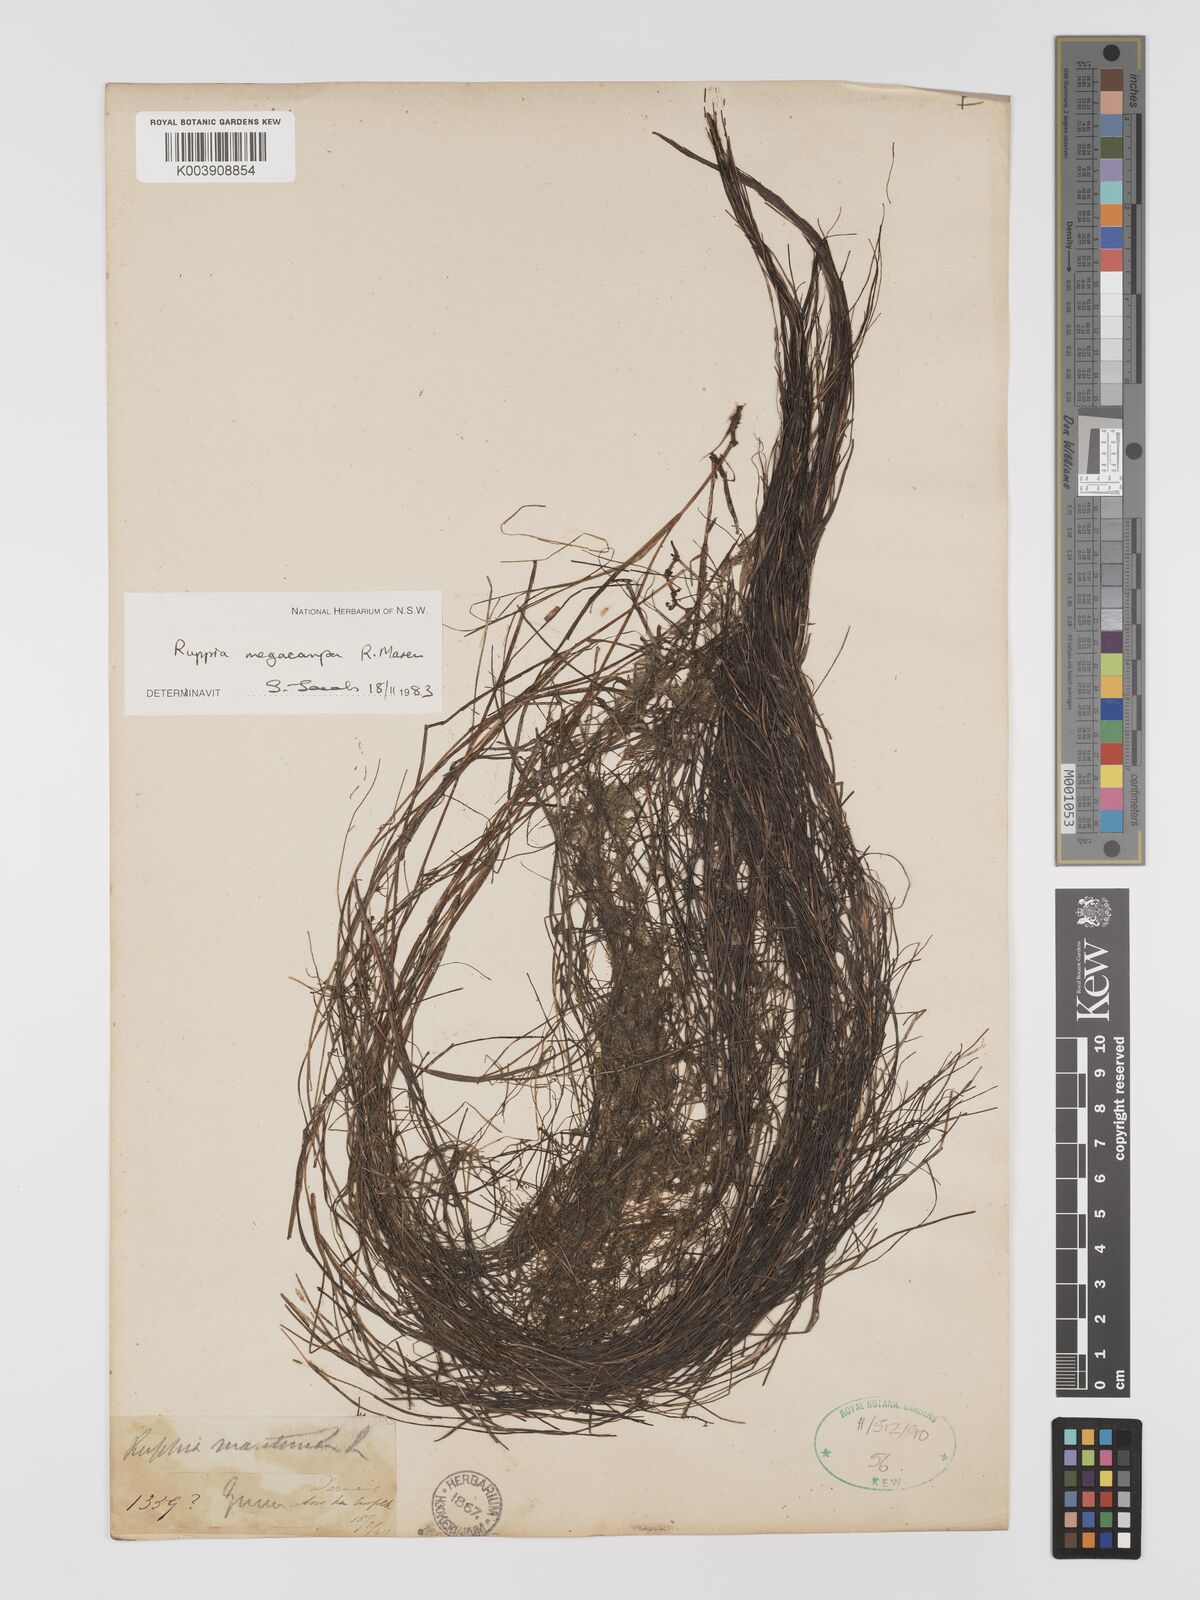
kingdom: Plantae
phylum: Tracheophyta
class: Liliopsida
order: Alismatales
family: Ruppiaceae
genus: Ruppia
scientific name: Ruppia megacarpa
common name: Large-fruit seatassel
